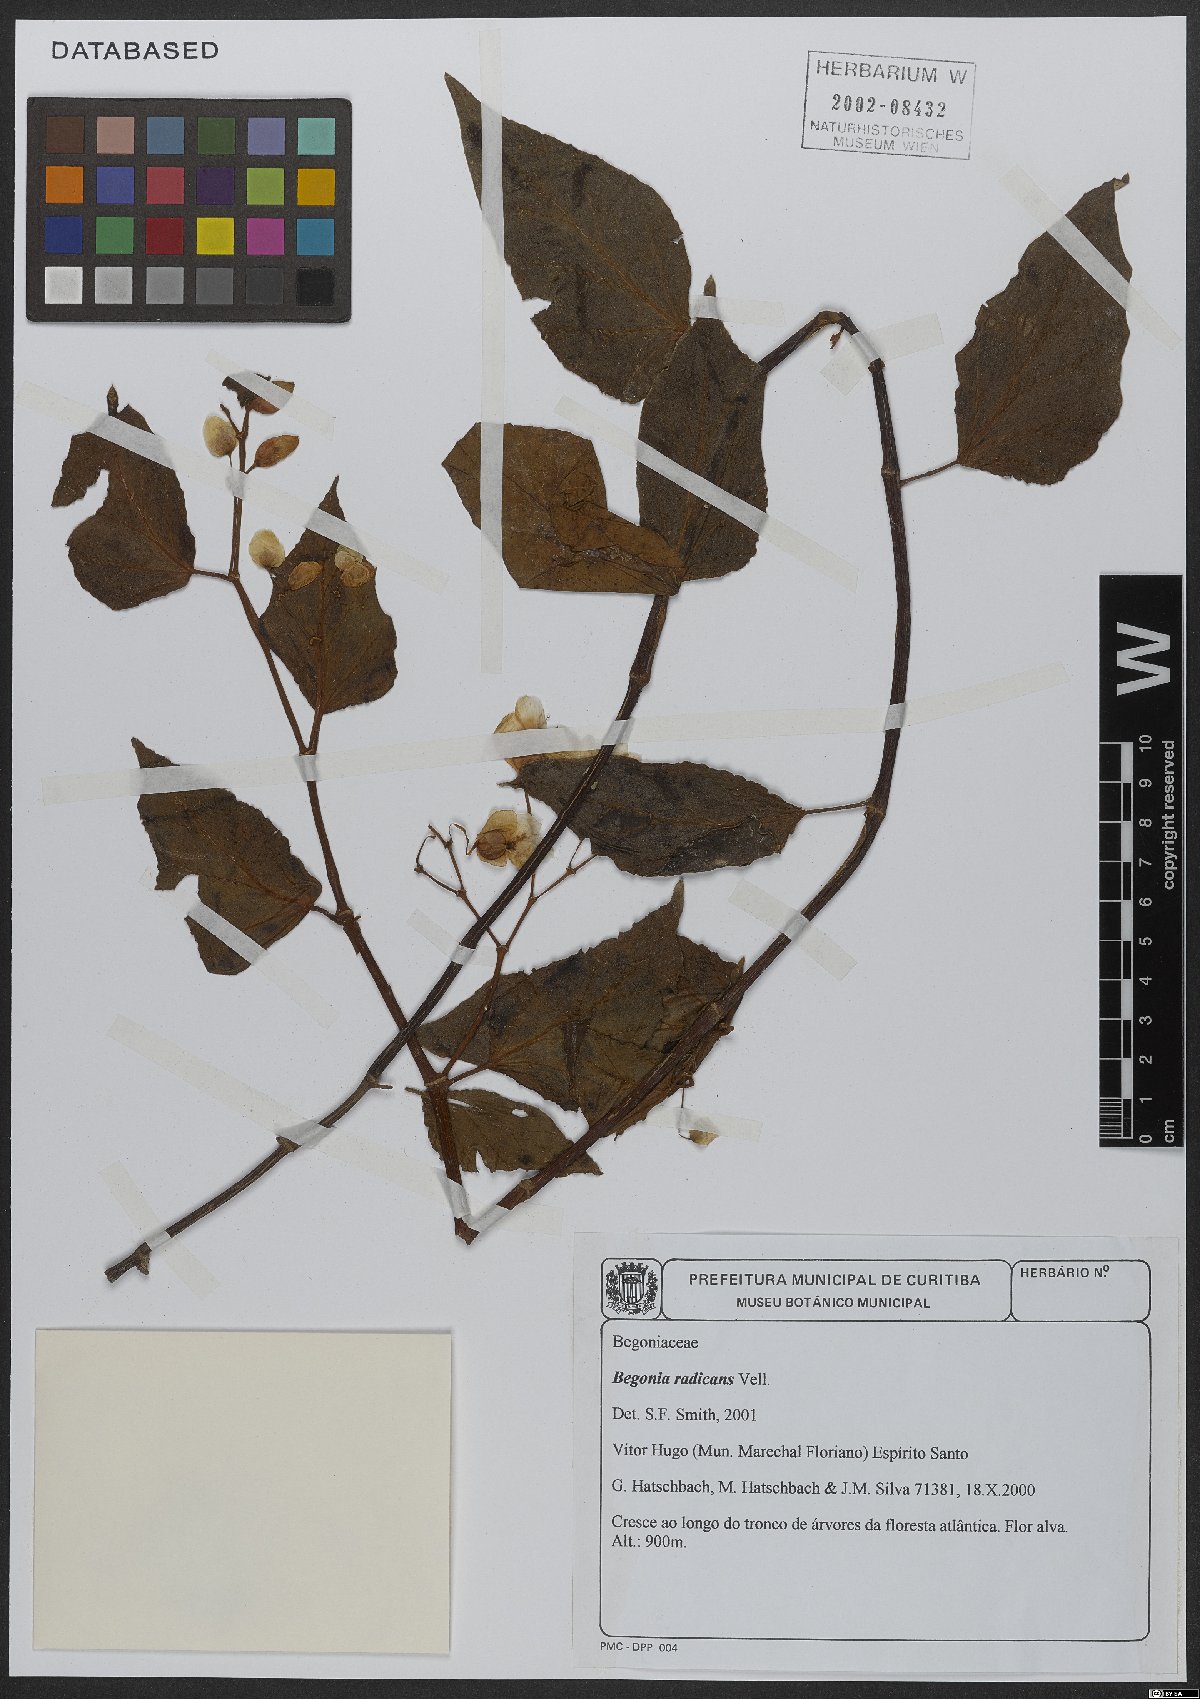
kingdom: Plantae
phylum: Tracheophyta
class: Magnoliopsida
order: Cucurbitales
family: Begoniaceae
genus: Begonia
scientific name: Begonia radicans
